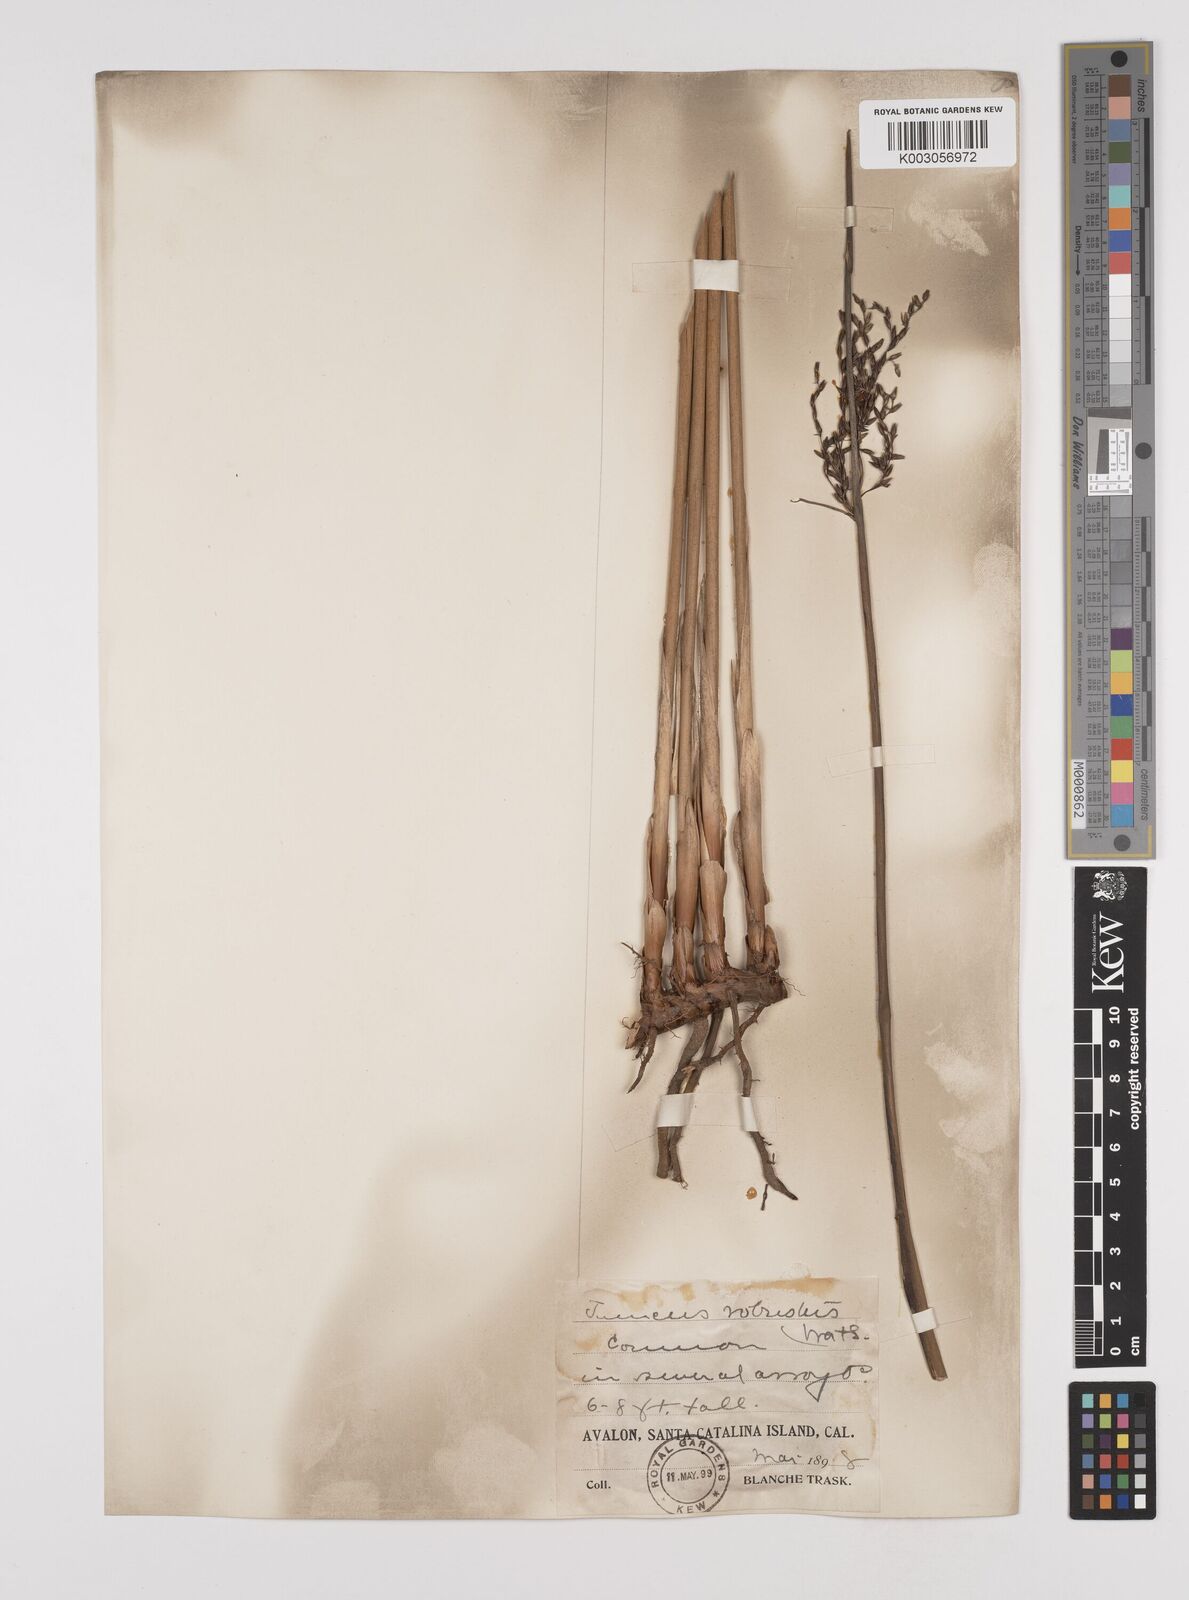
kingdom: Plantae
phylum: Tracheophyta
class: Liliopsida
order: Poales
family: Juncaceae
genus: Juncus
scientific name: Juncus acutus
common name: Sharp rush
